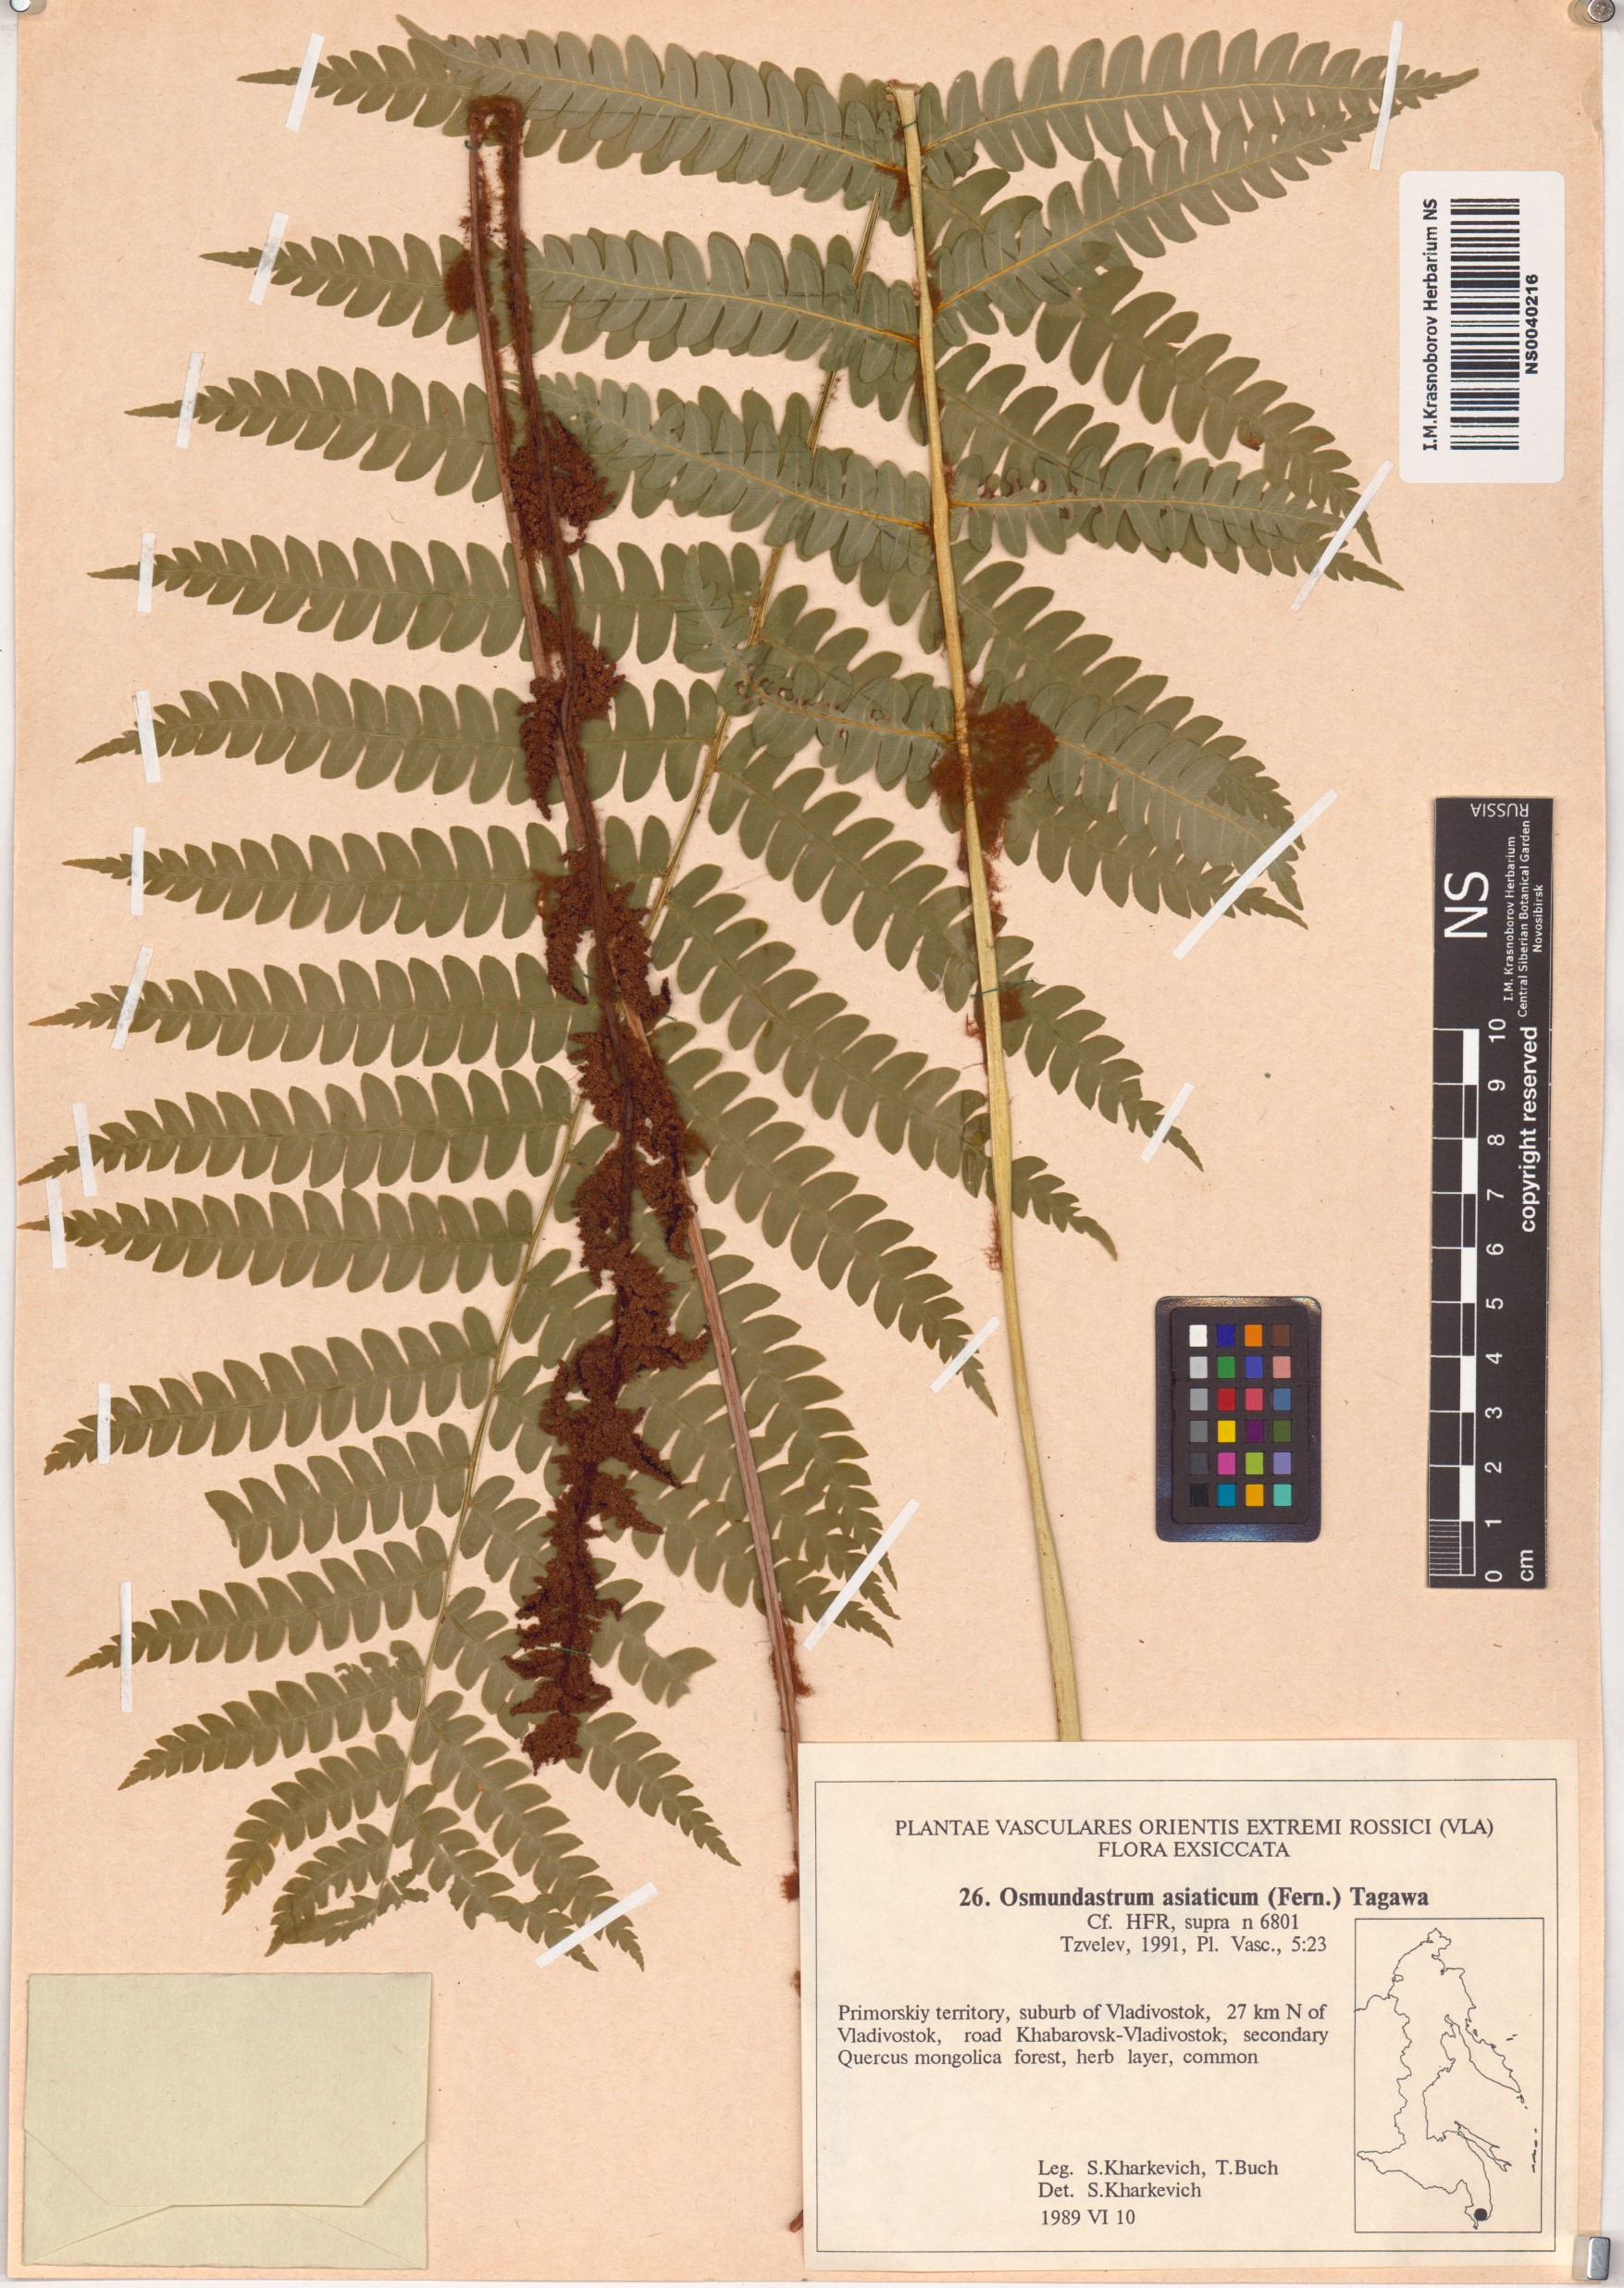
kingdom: Plantae
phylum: Tracheophyta
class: Polypodiopsida
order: Osmundales
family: Osmundaceae
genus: Osmundastrum
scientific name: Osmundastrum cinnamomeum
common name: Cinnamon fern
